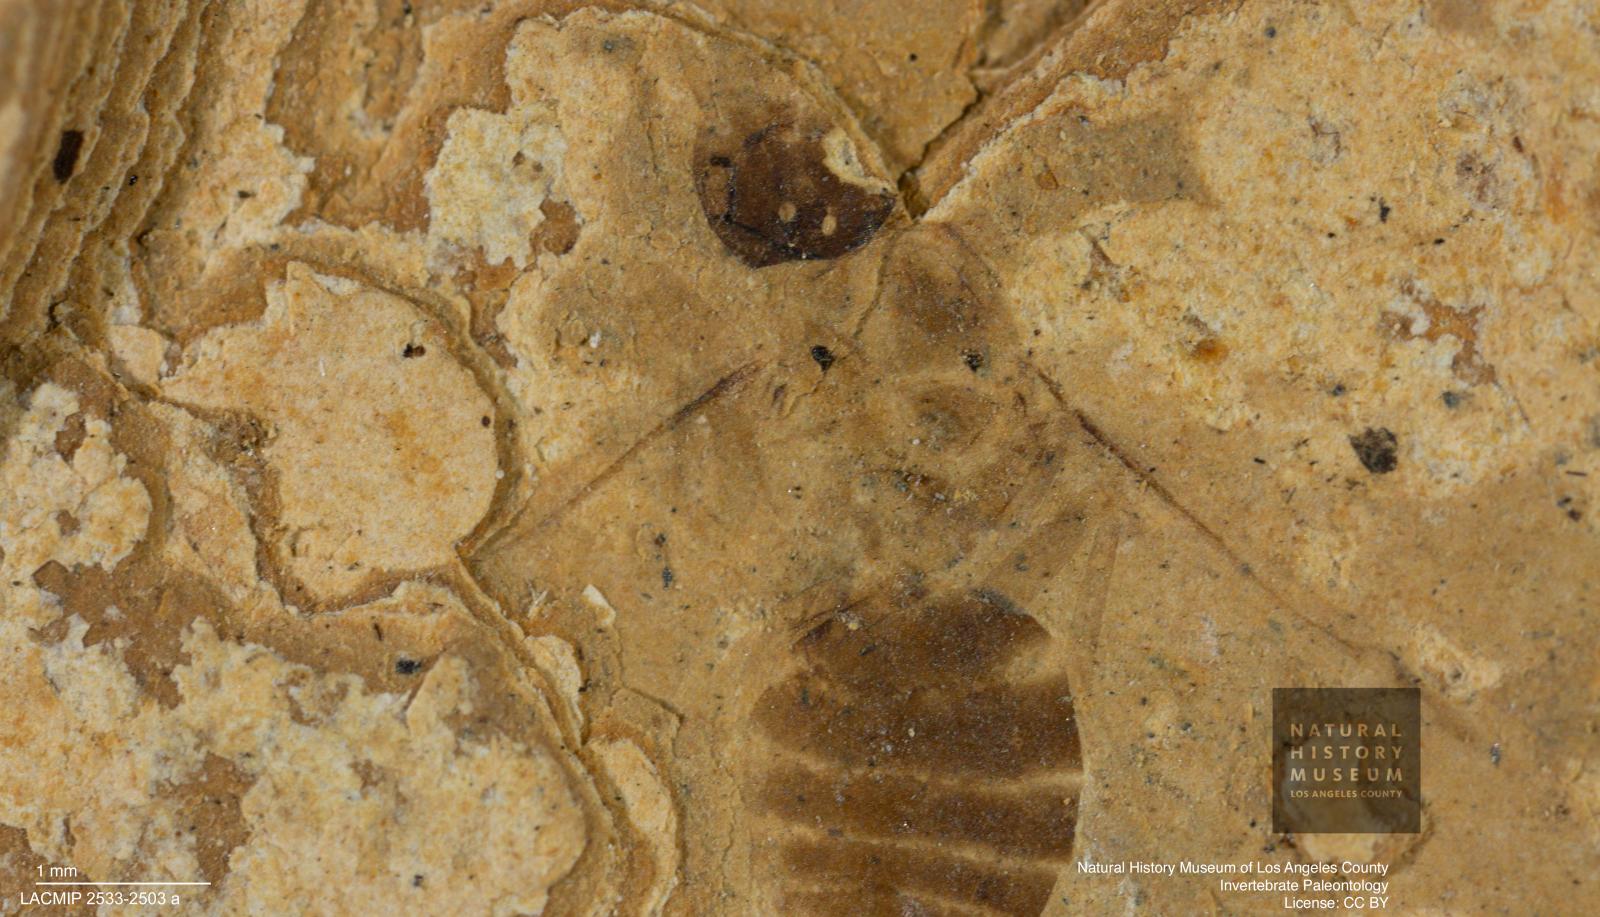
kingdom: Animalia
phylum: Arthropoda
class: Insecta
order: Hymenoptera
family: Formicidae
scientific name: Formicidae
